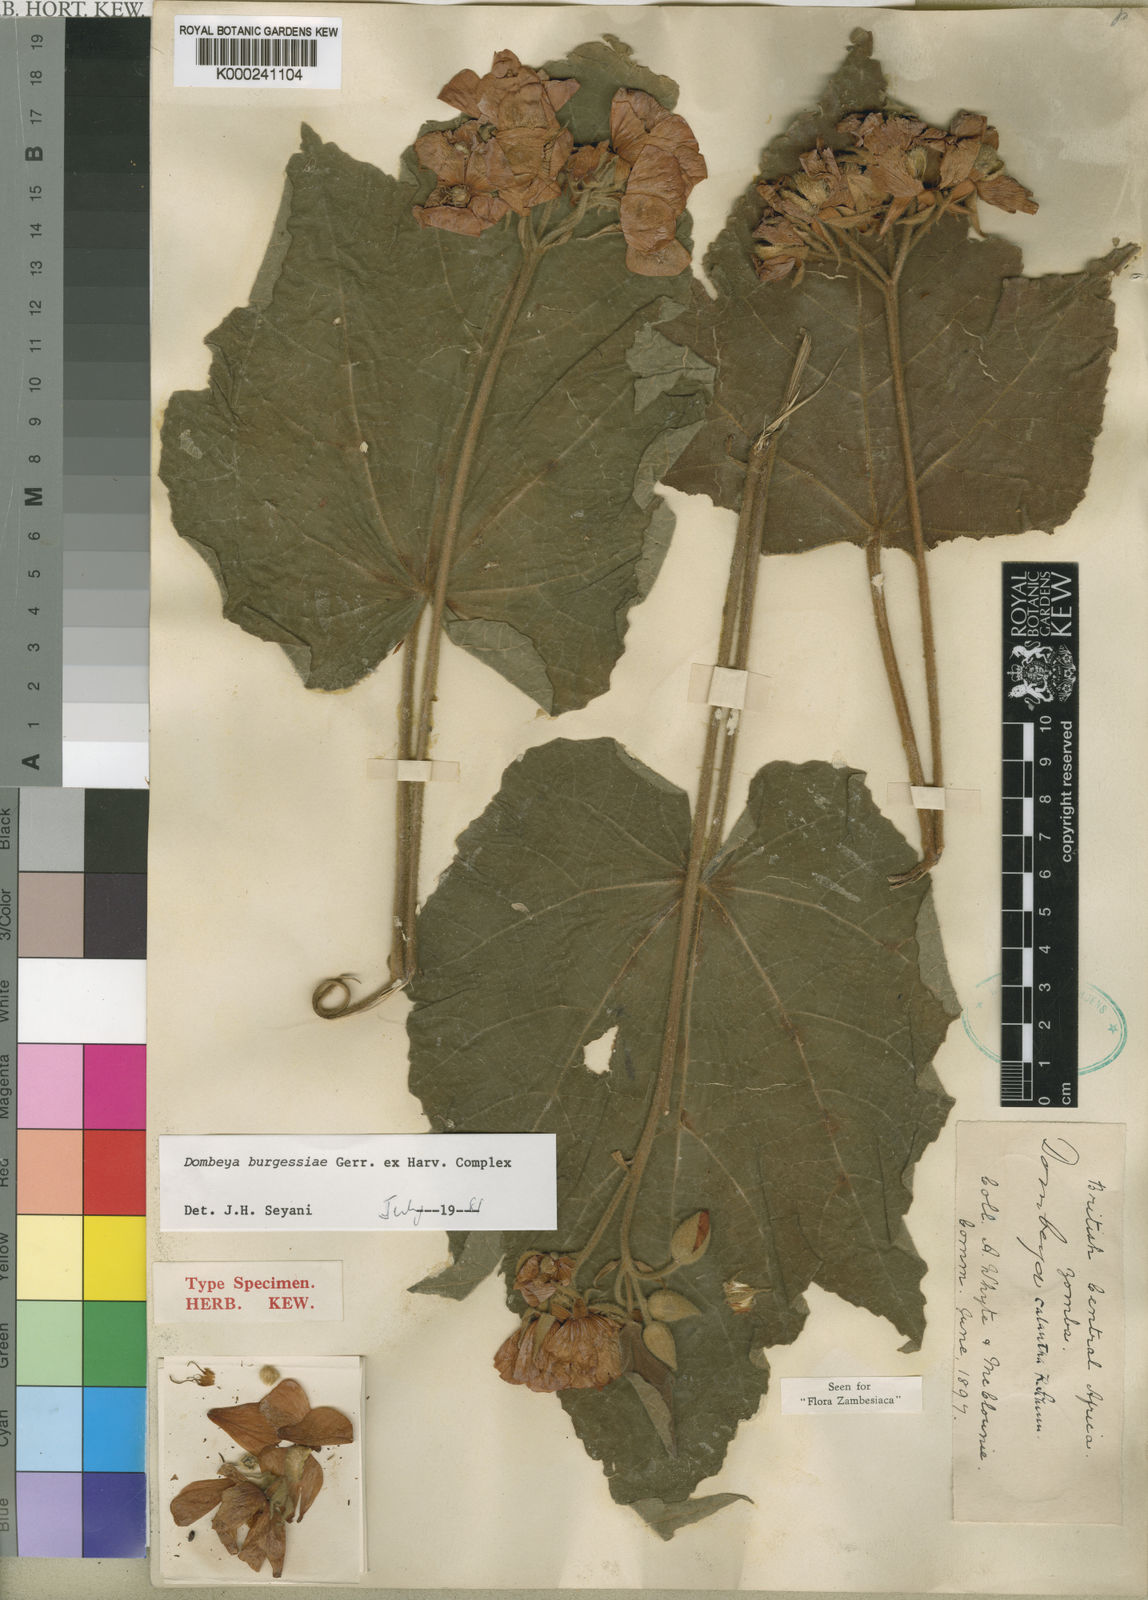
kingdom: Plantae
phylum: Tracheophyta
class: Magnoliopsida
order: Malvales
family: Malvaceae
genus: Dombeya
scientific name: Dombeya burgessiae
